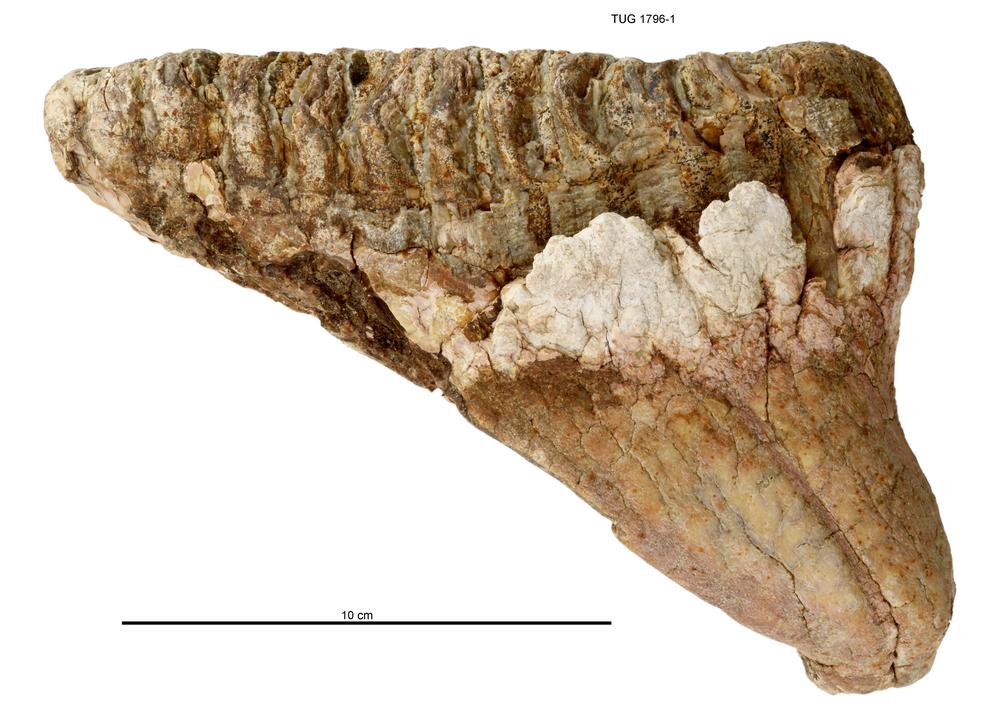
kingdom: Animalia
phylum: Chordata
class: Mammalia
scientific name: Mammalia
